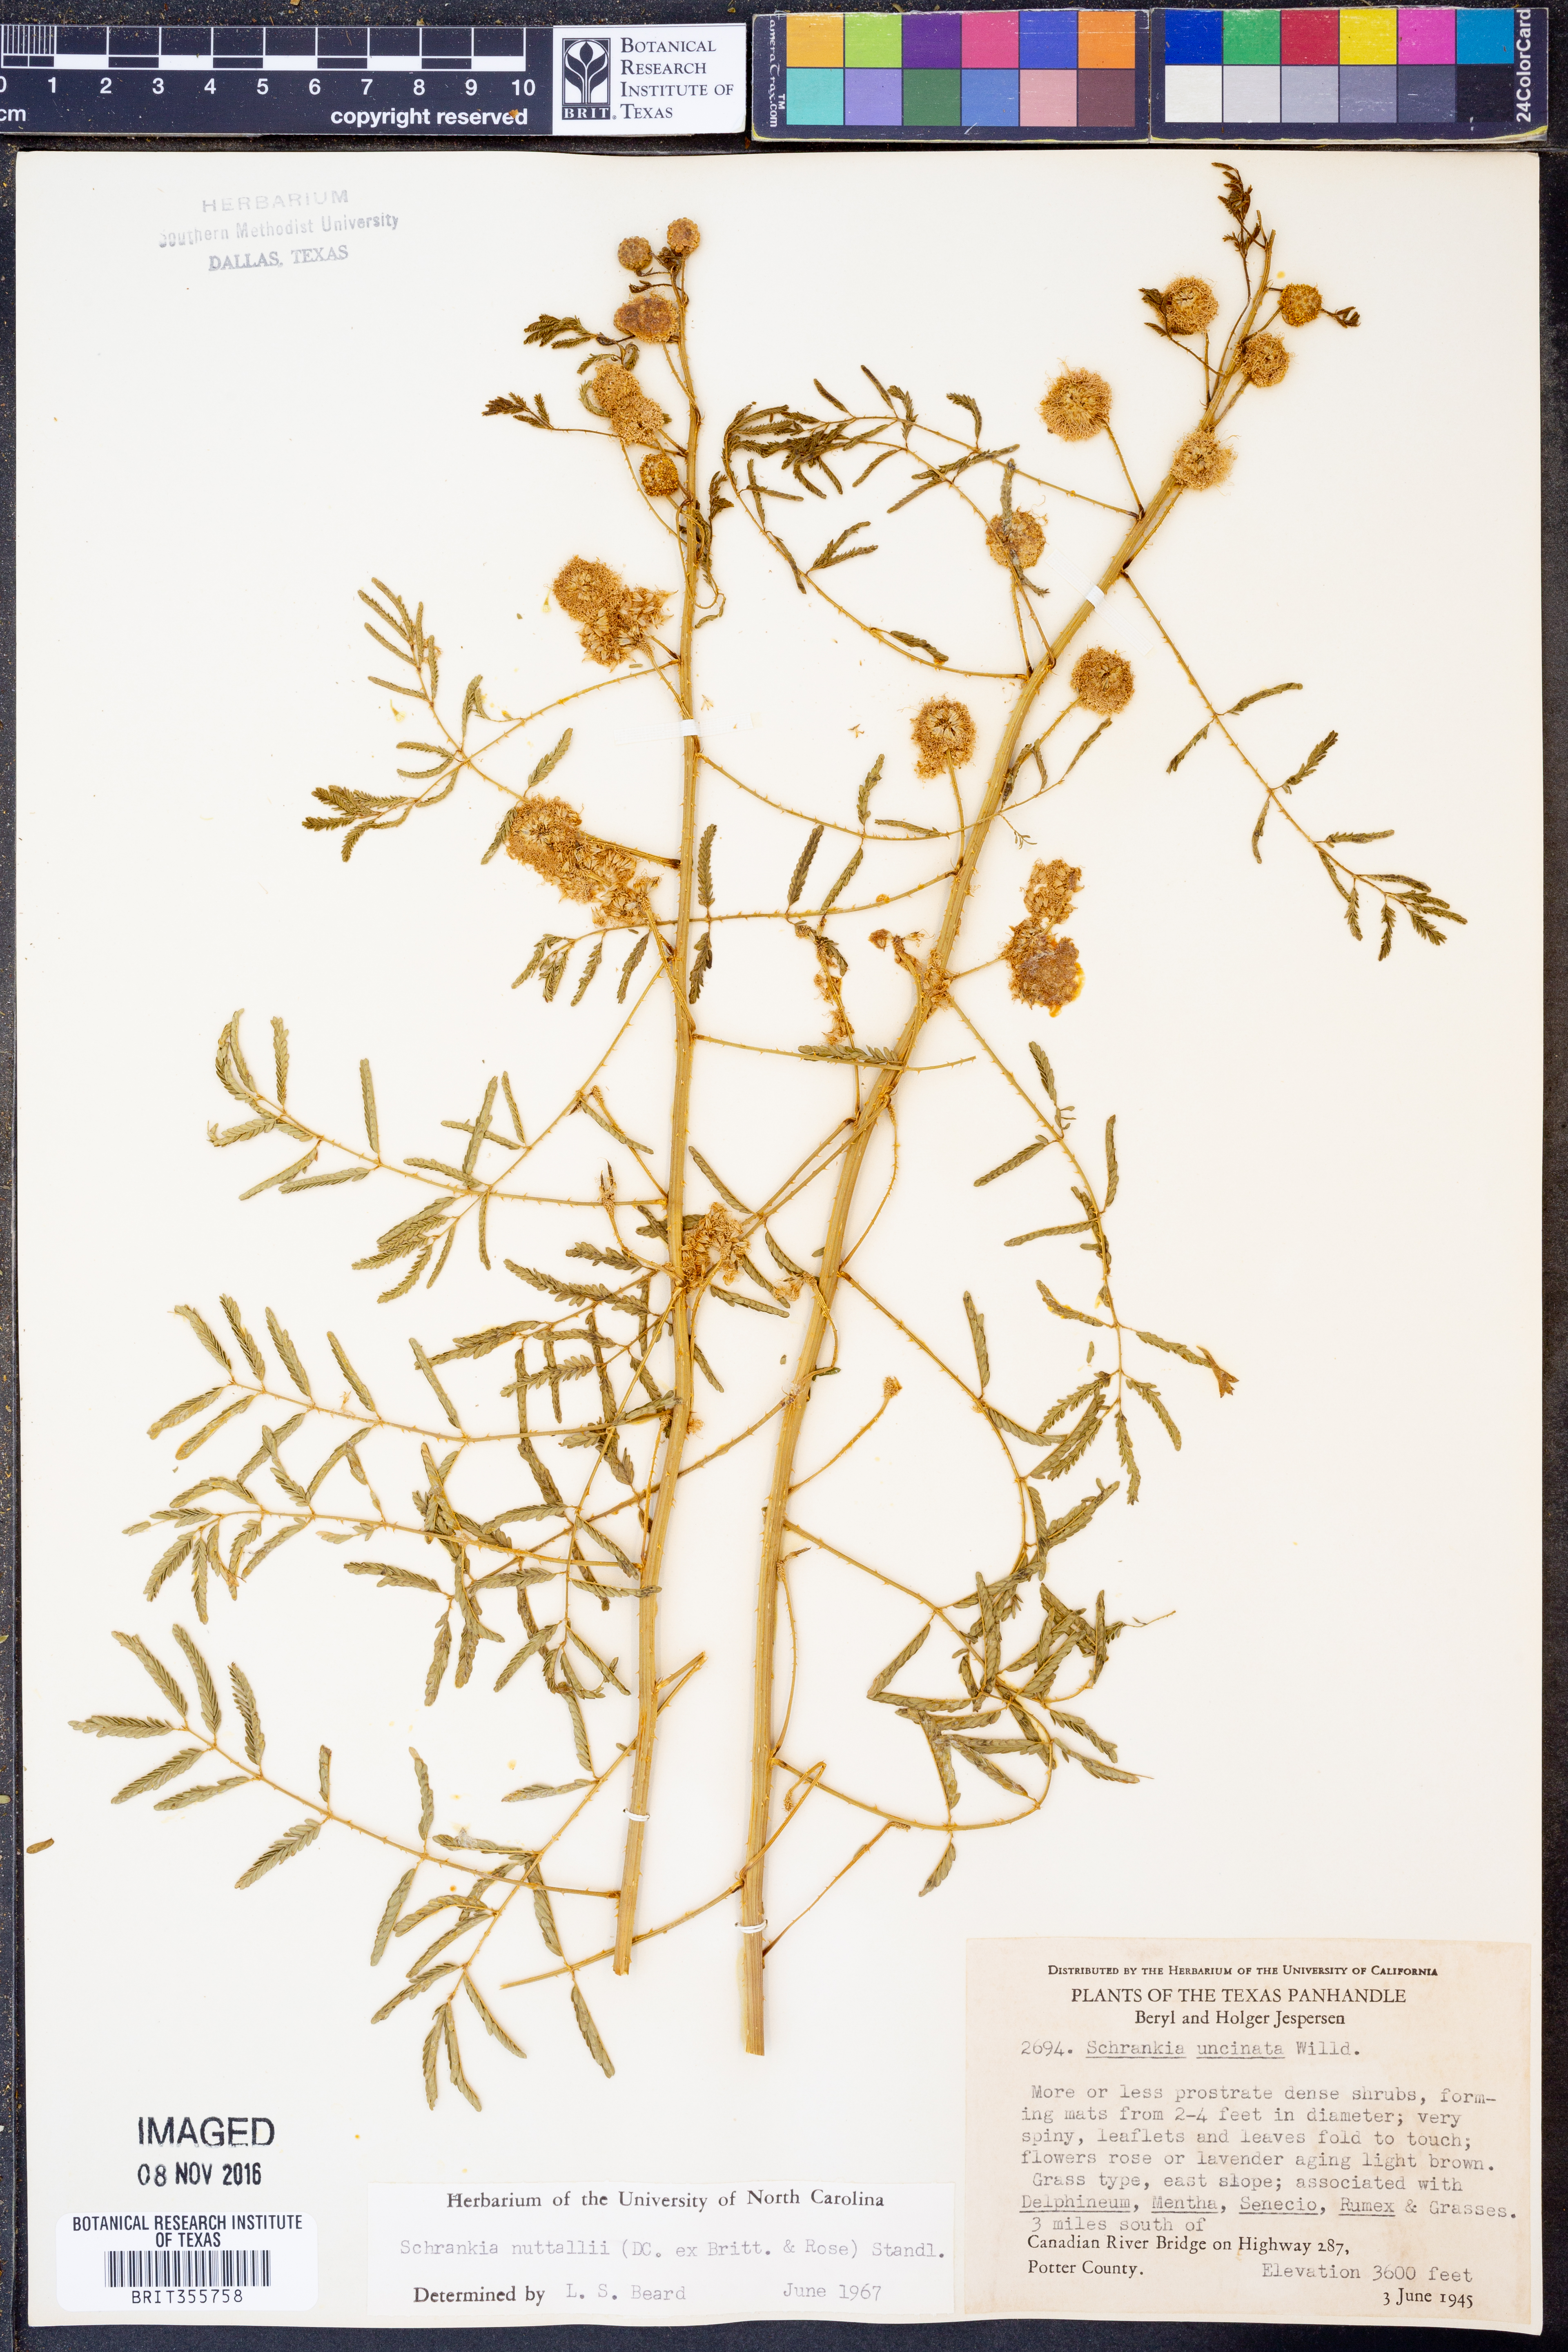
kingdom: Plantae
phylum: Tracheophyta
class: Magnoliopsida
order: Fabales
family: Fabaceae
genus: Mimosa
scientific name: Mimosa quadrivalvis
